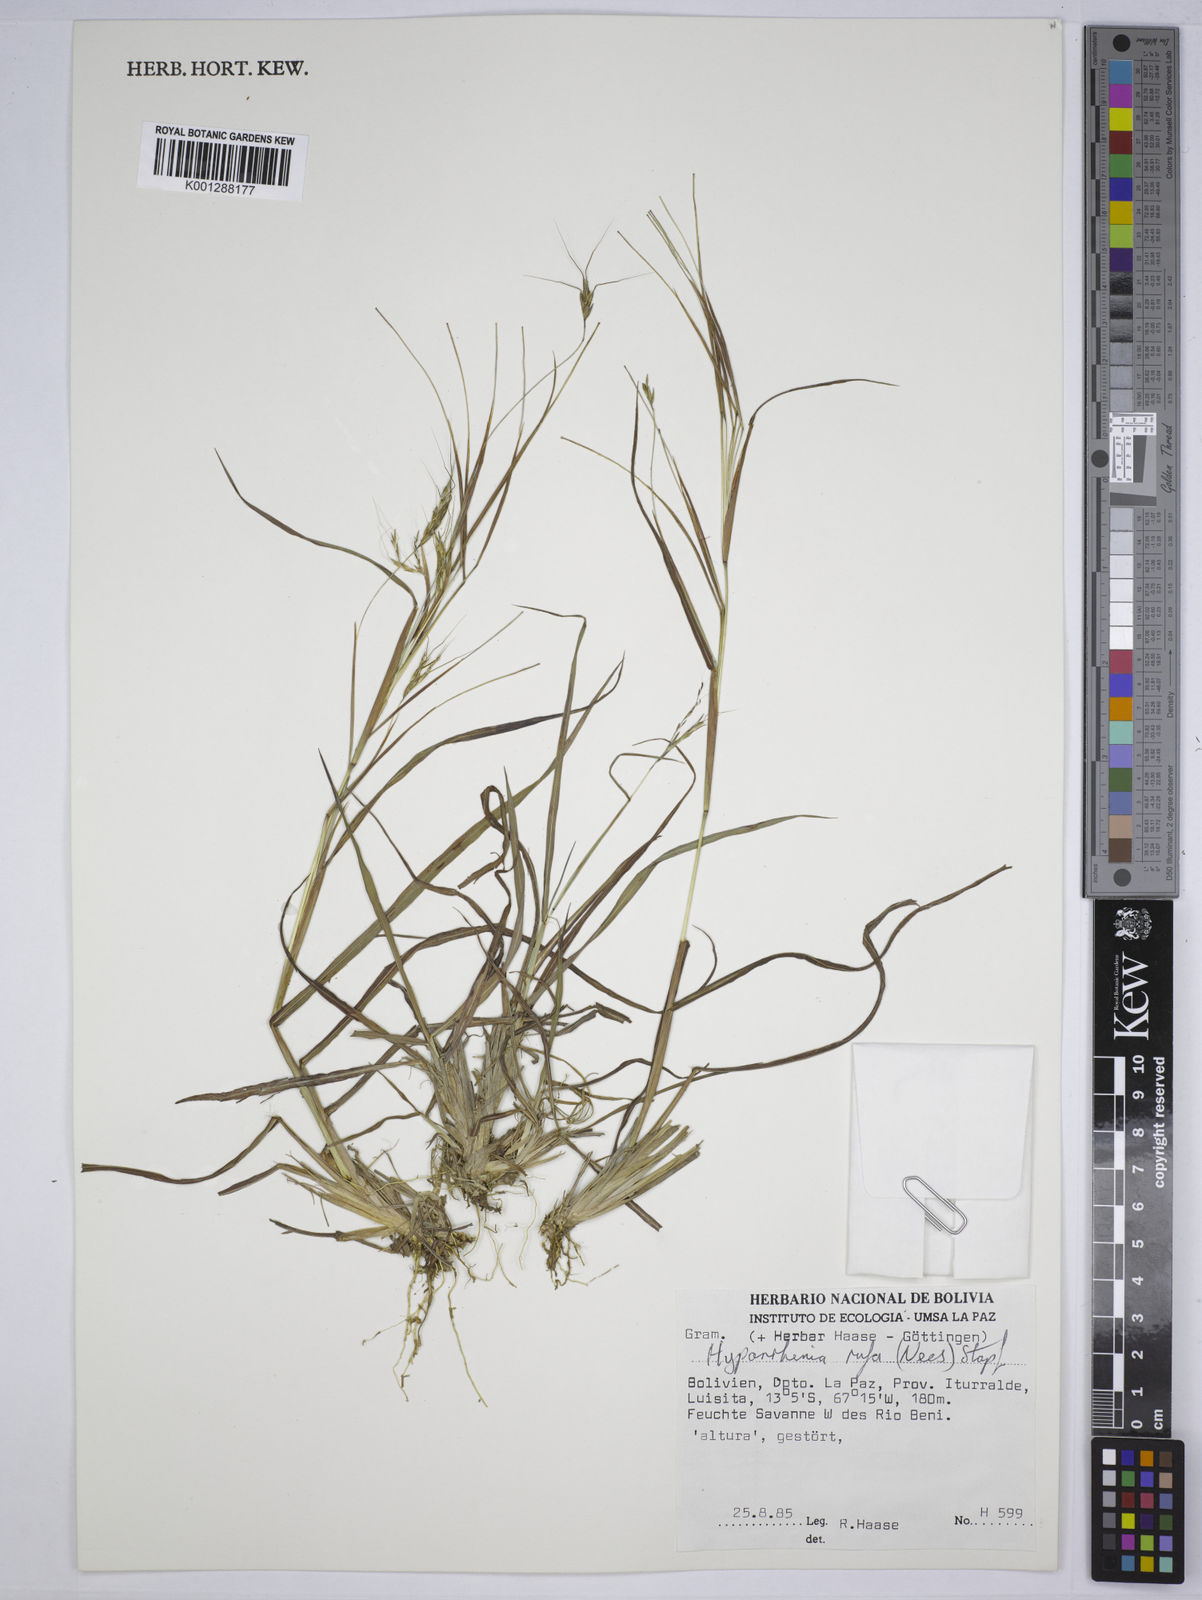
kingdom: Plantae
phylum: Tracheophyta
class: Liliopsida
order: Poales
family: Poaceae
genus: Hyparrhenia
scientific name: Hyparrhenia rufa
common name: Jaraguagrass
